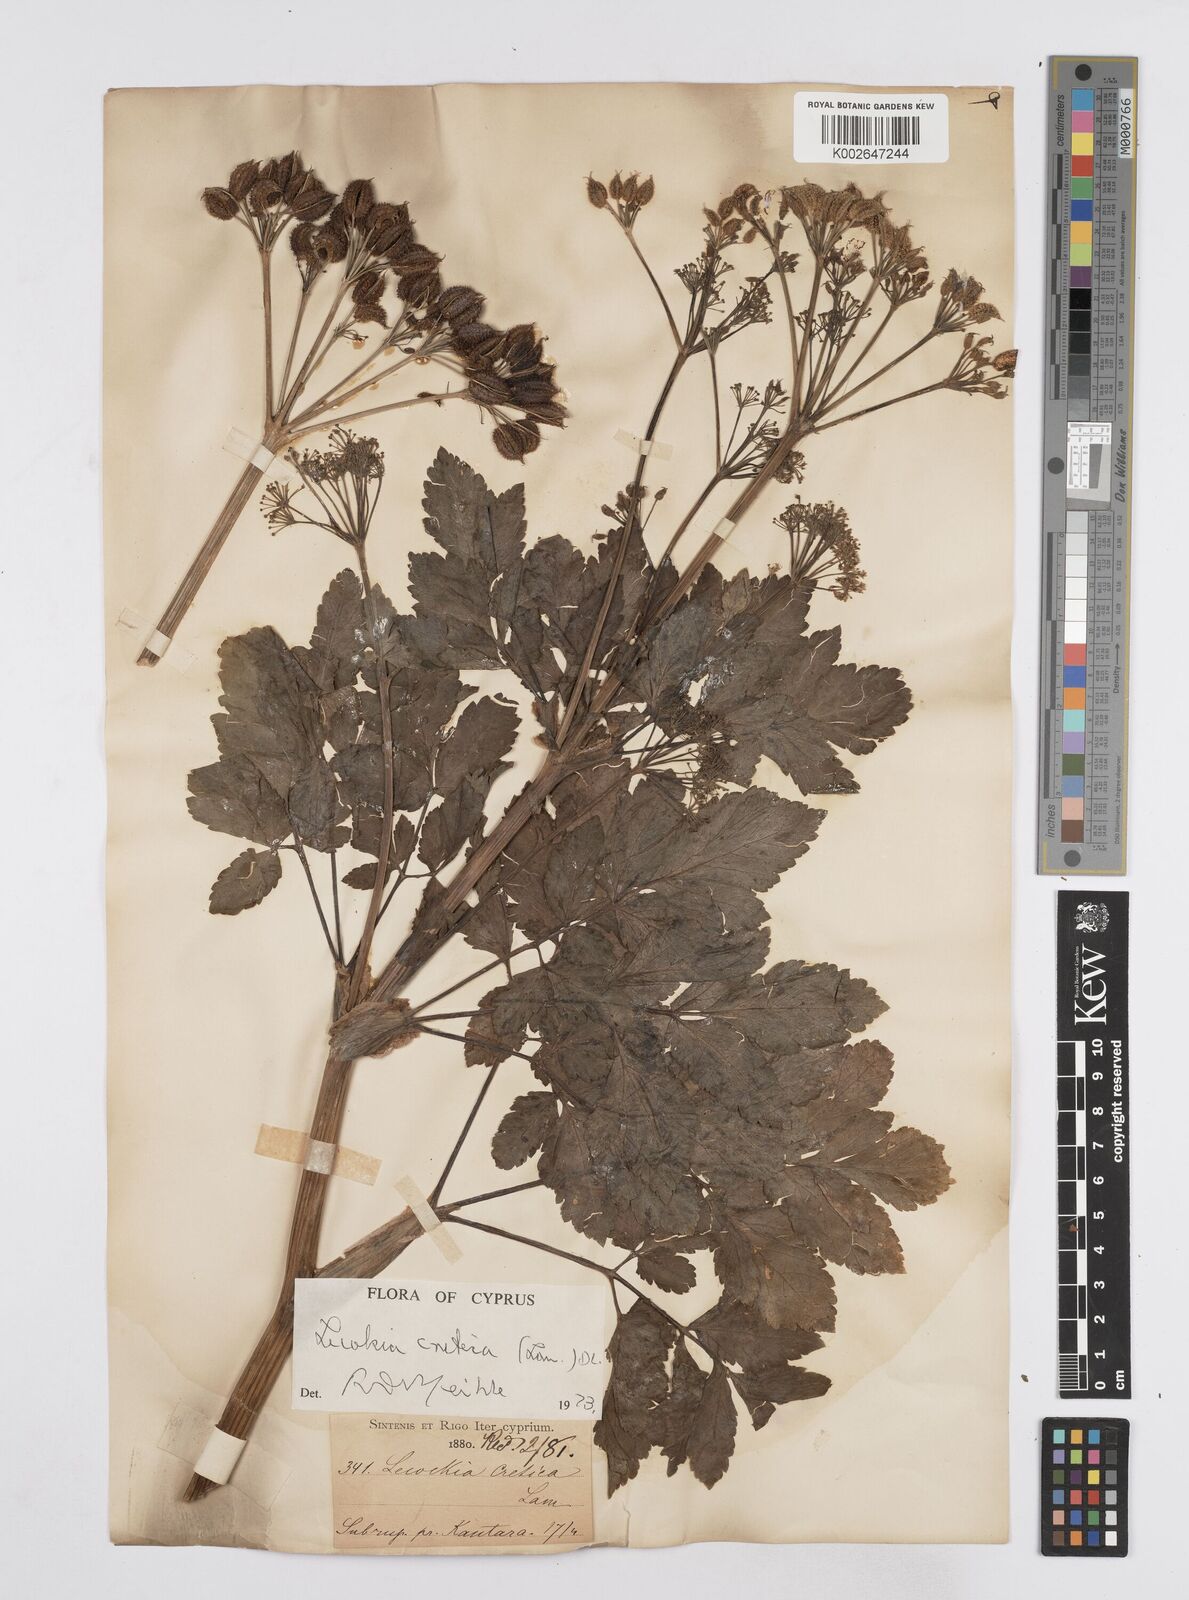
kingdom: Plantae
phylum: Tracheophyta
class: Magnoliopsida
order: Apiales
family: Apiaceae
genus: Lecokia
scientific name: Lecokia cretica
